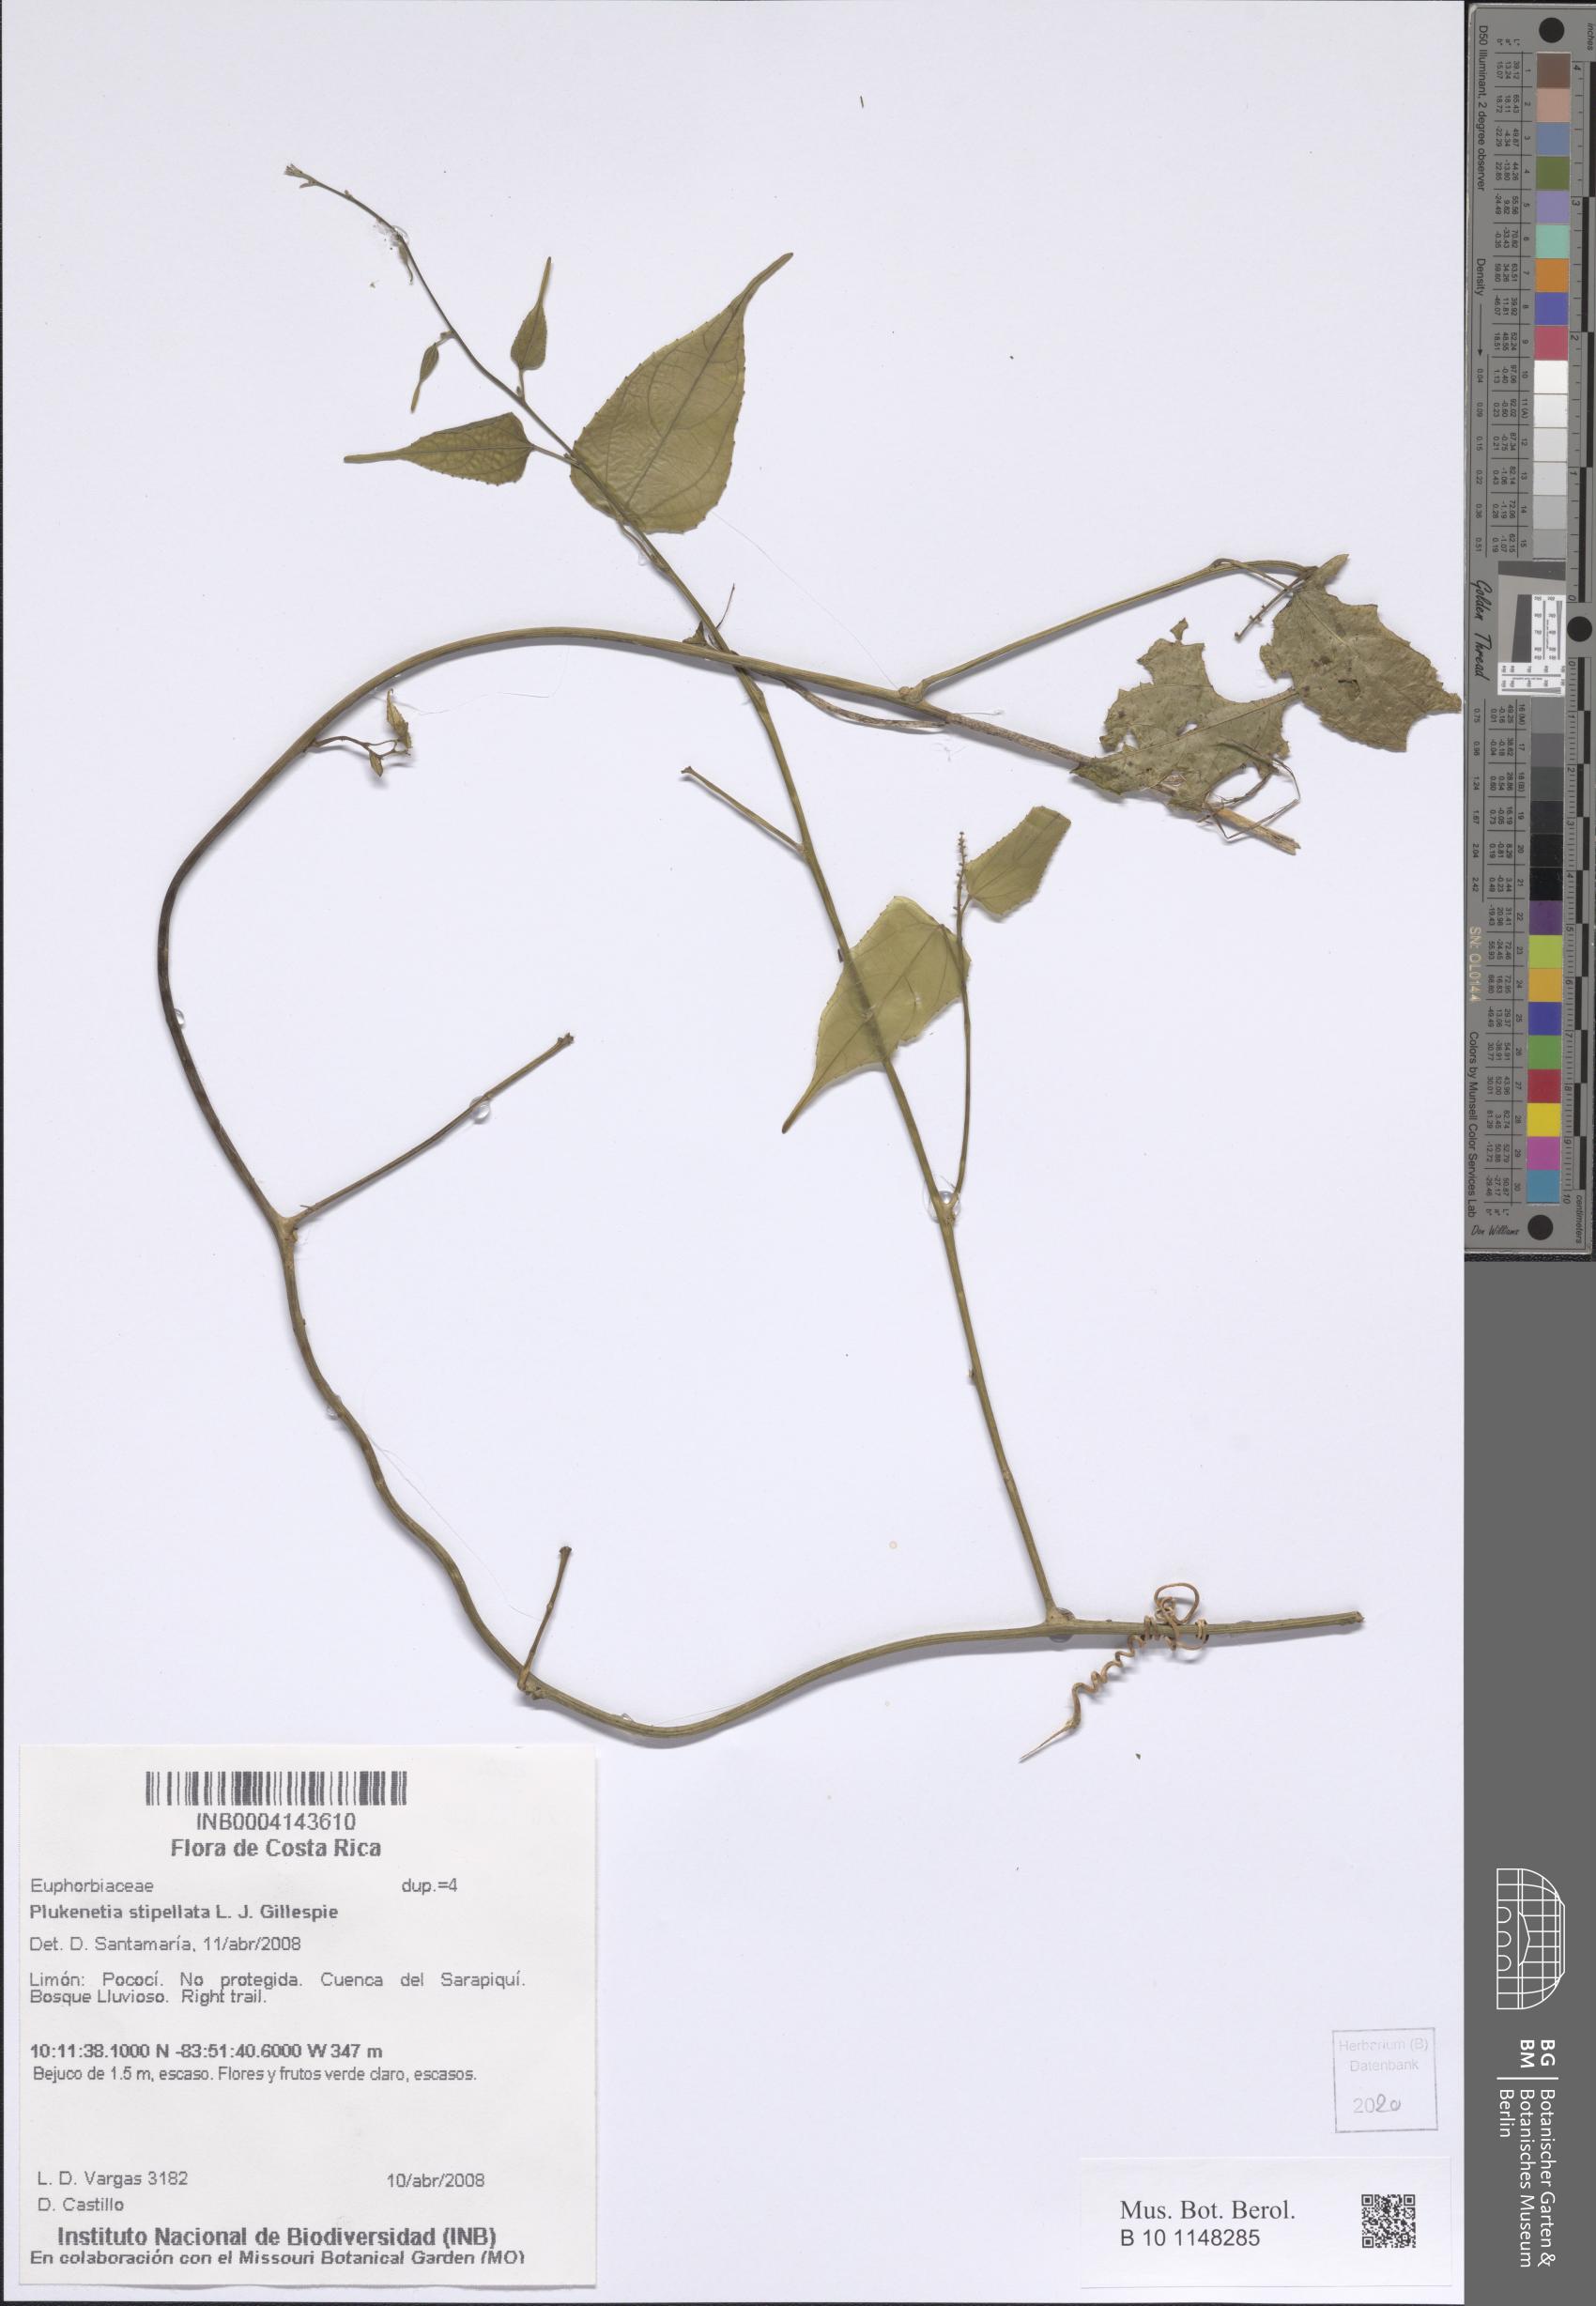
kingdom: Plantae
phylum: Tracheophyta
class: Magnoliopsida
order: Malpighiales
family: Euphorbiaceae
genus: Plukenetia
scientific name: Plukenetia stipellata
